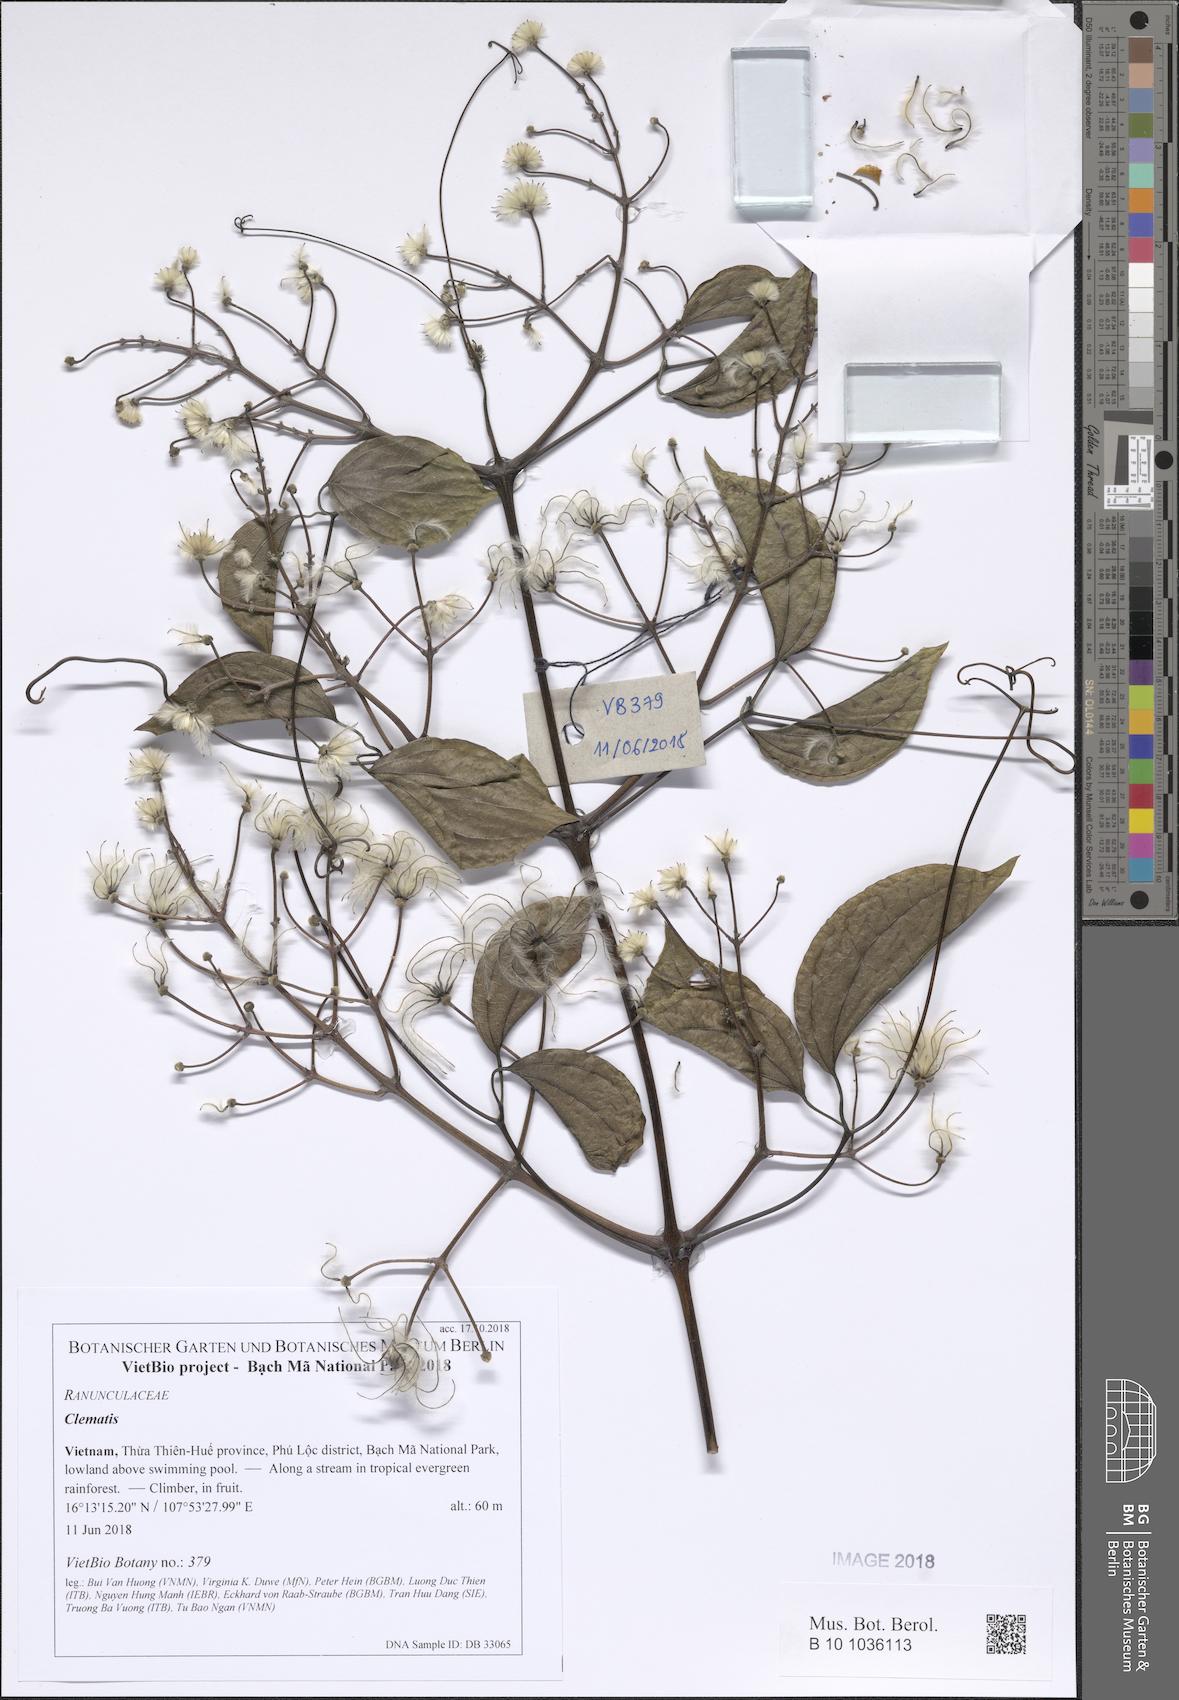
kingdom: Plantae
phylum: Tracheophyta
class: Magnoliopsida
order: Ranunculales
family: Ranunculaceae
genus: Clematis
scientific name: Clematis aureolata
